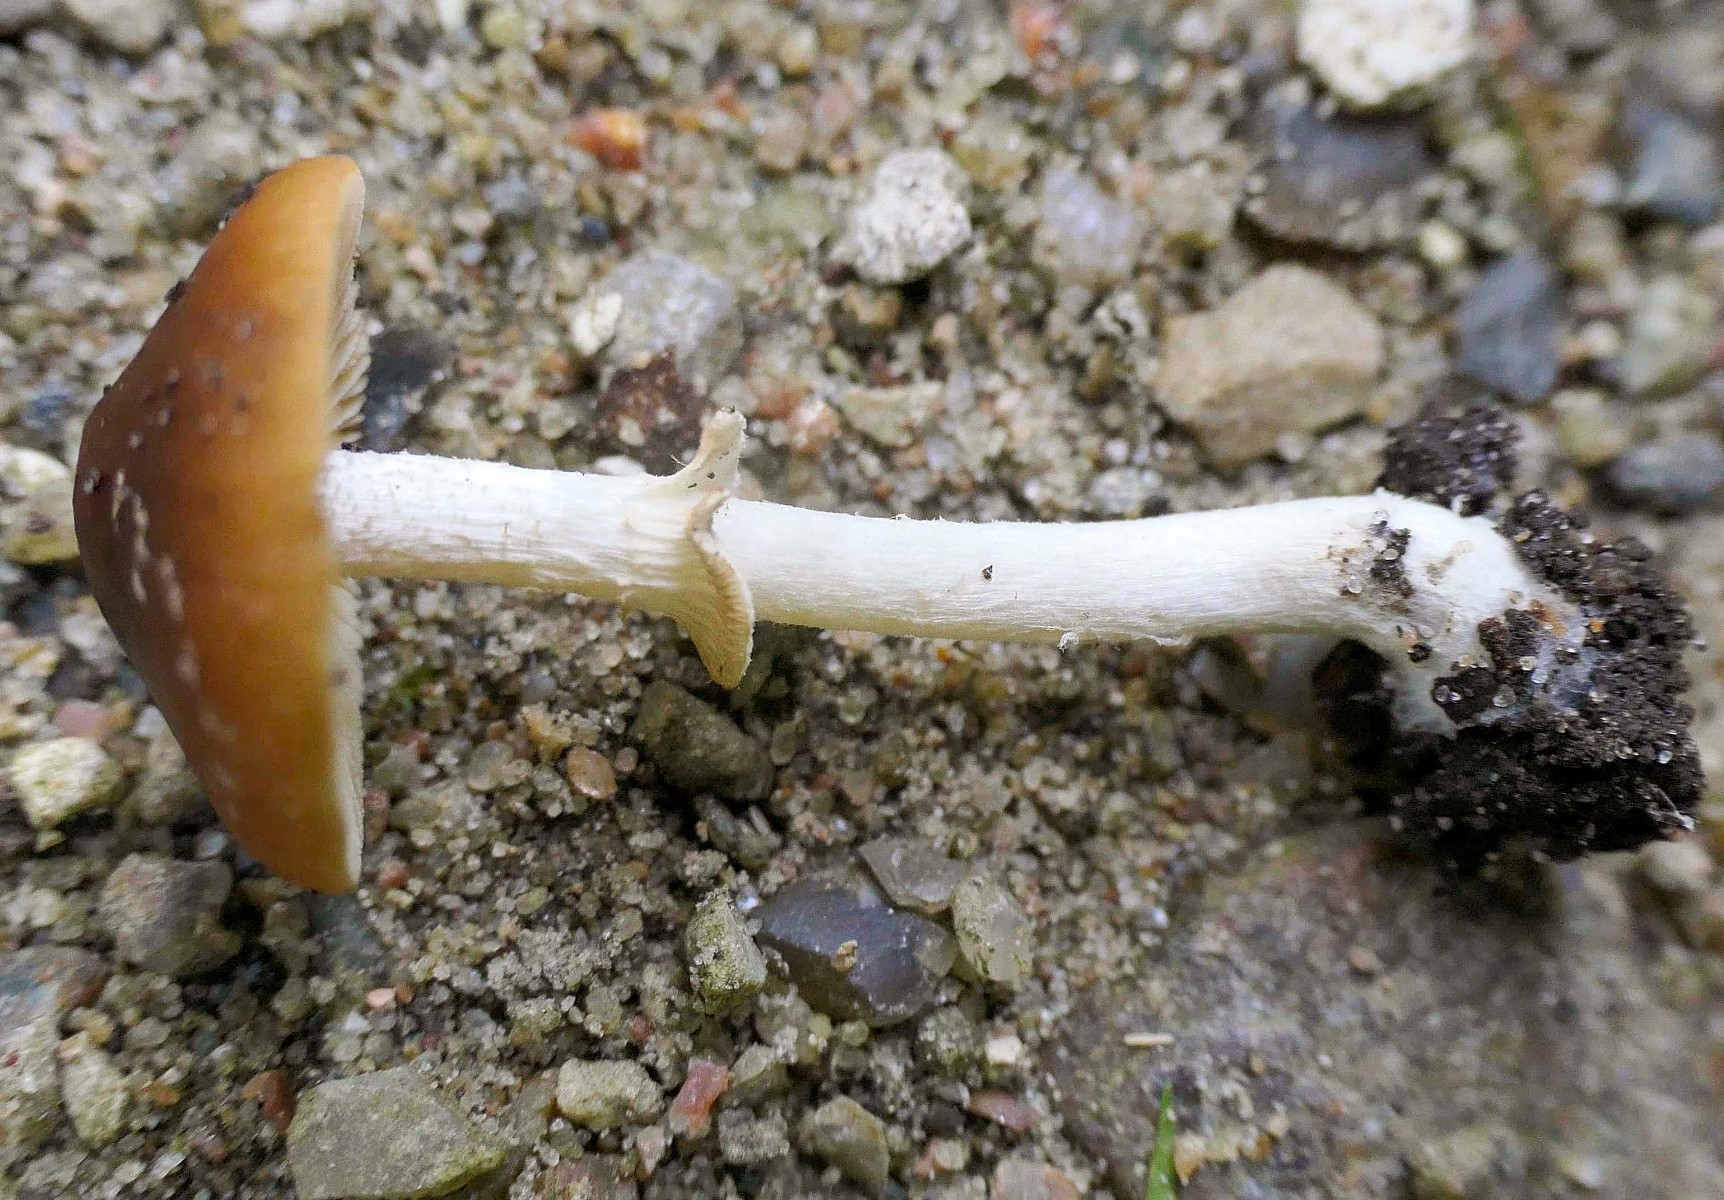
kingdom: Fungi
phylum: Basidiomycota
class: Agaricomycetes
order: Agaricales
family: Bolbitiaceae
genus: Conocybe
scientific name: Conocybe arrhenii
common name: ring-dansehat
